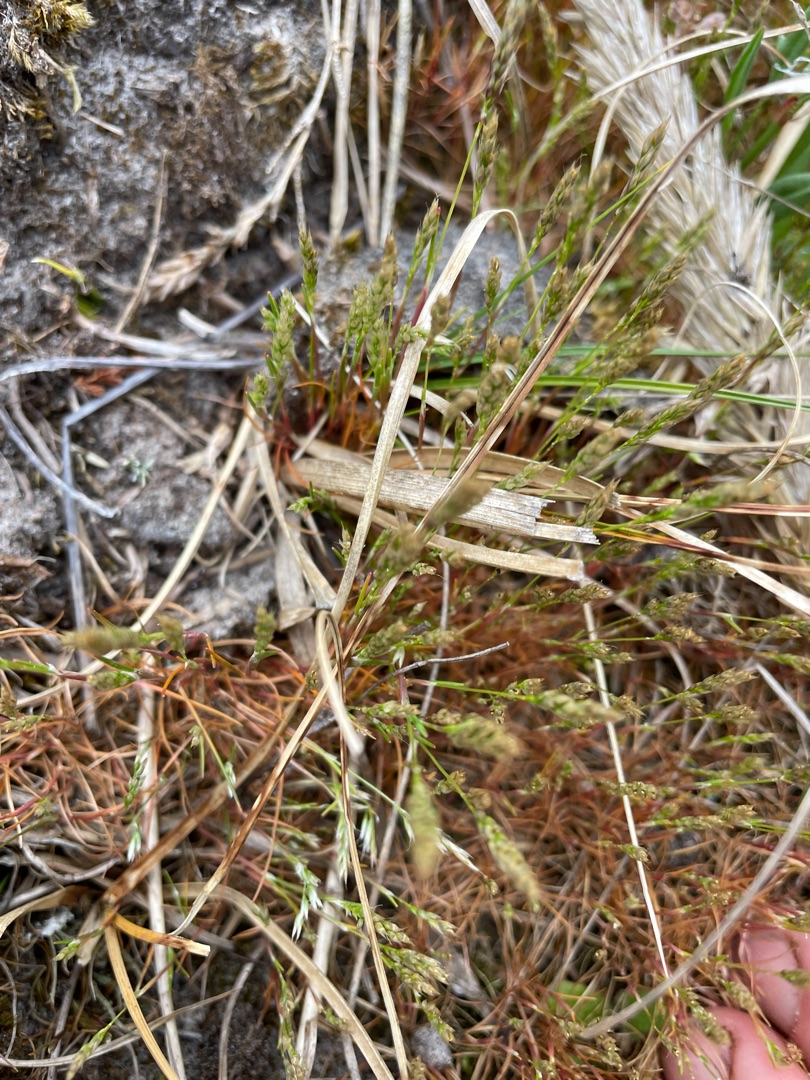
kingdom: Plantae
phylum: Tracheophyta
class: Liliopsida
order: Poales
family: Poaceae
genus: Aira
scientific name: Aira praecox
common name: Tidlig dværgbunke
